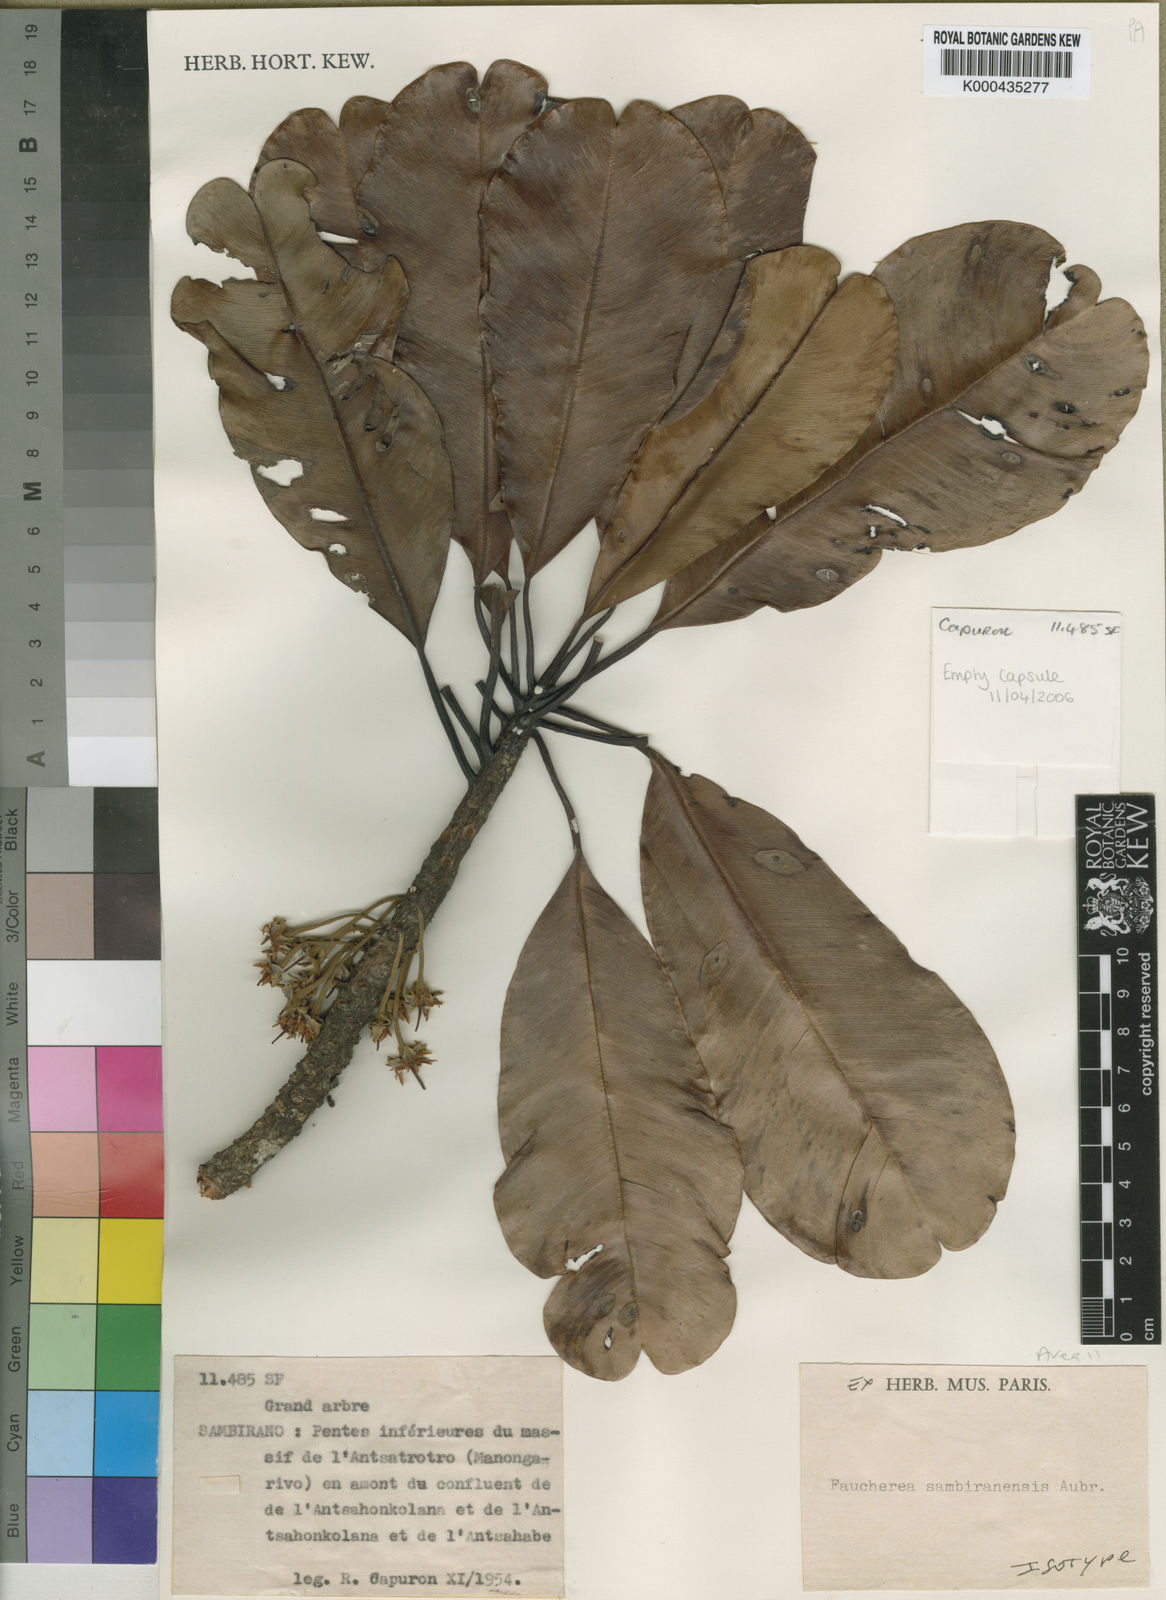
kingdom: Plantae
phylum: Tracheophyta
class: Magnoliopsida
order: Ericales
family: Sapotaceae
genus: Faucherea
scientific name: Faucherea sambiranensis
